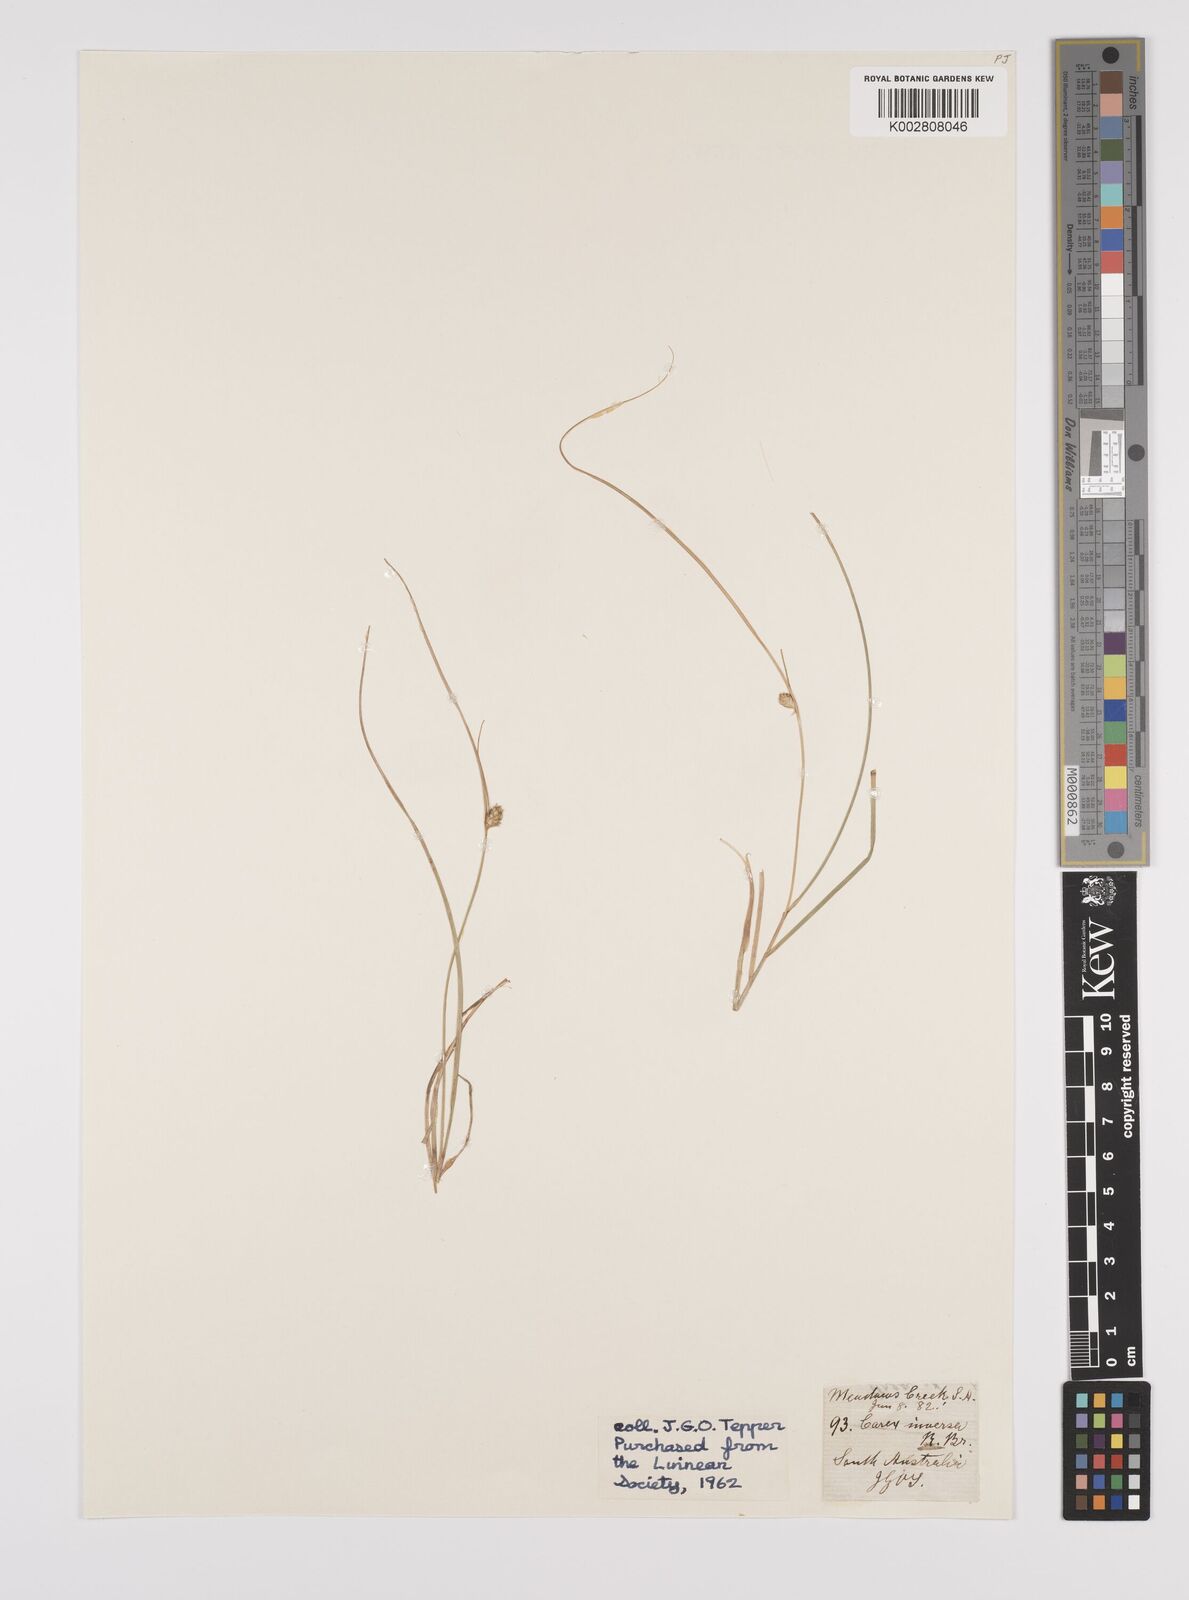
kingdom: Plantae
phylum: Tracheophyta
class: Liliopsida
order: Poales
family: Cyperaceae
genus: Carex
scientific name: Carex inversa
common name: Knob sedge
